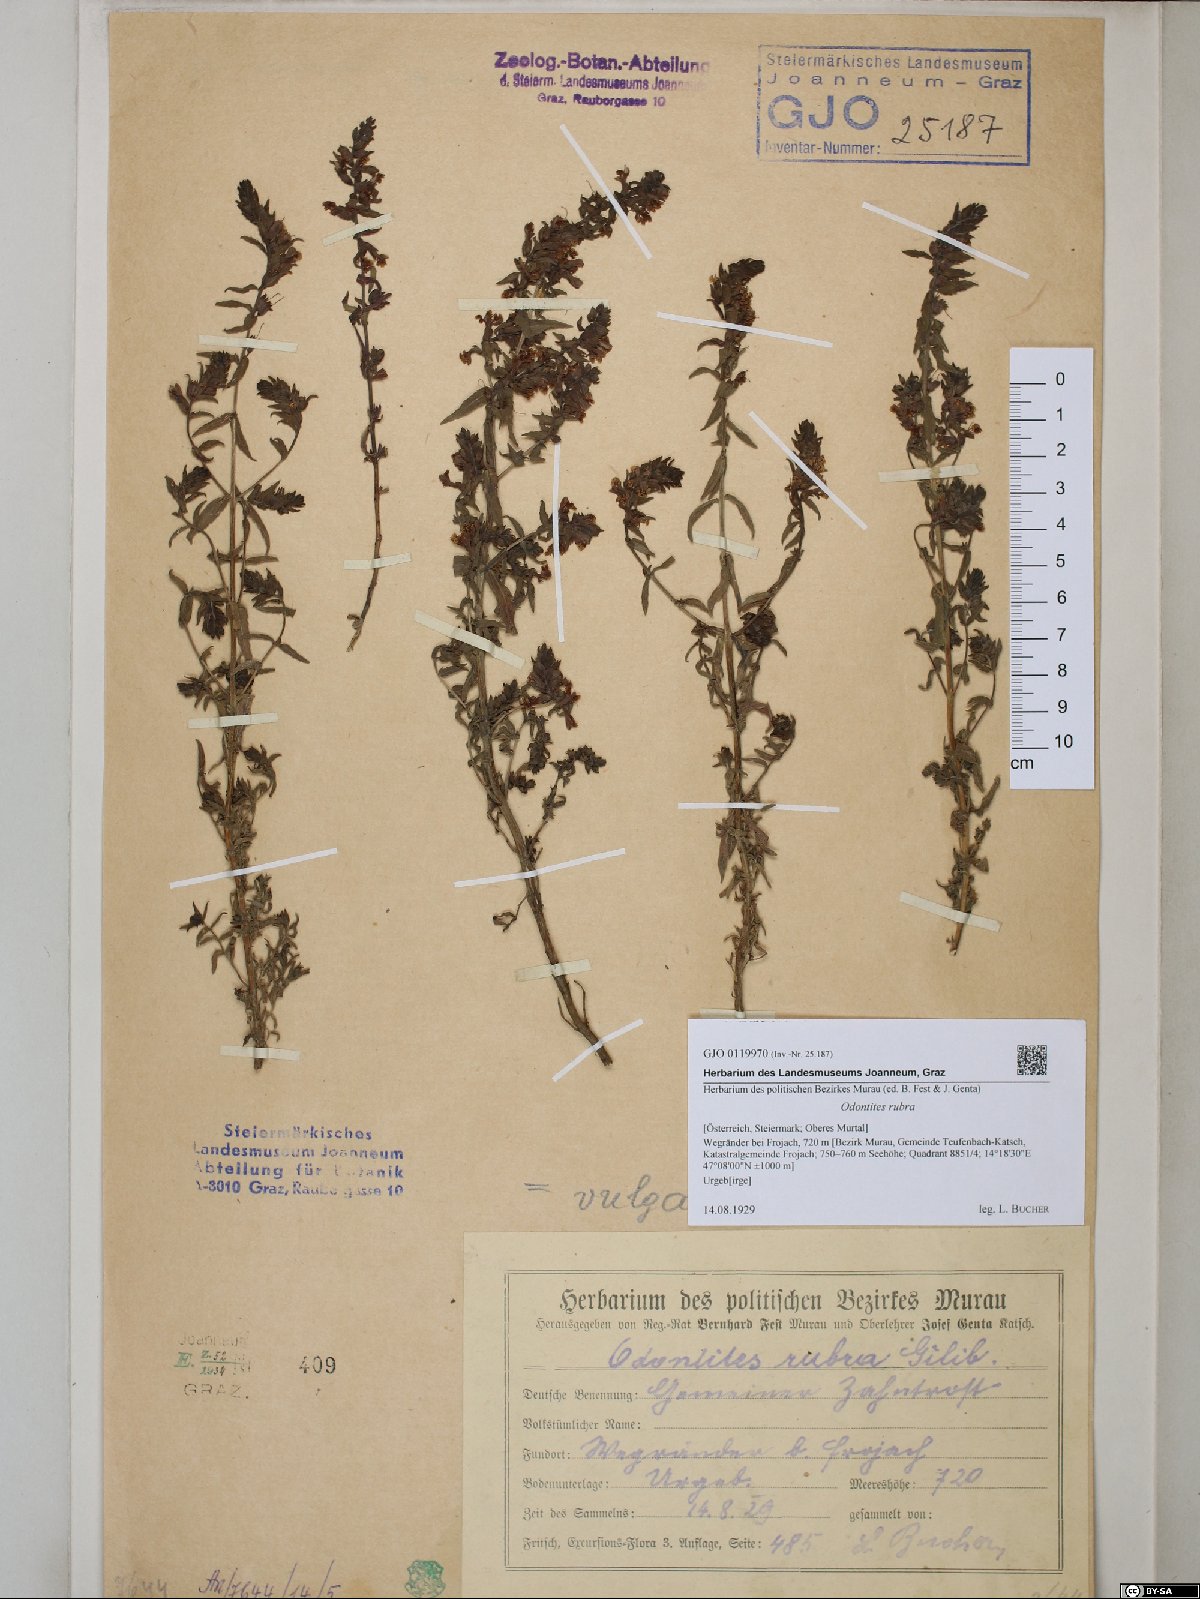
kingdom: Plantae
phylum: Tracheophyta
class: Magnoliopsida
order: Lamiales
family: Orobanchaceae
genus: Odontites
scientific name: Odontites vulgaris
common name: Broomrape
